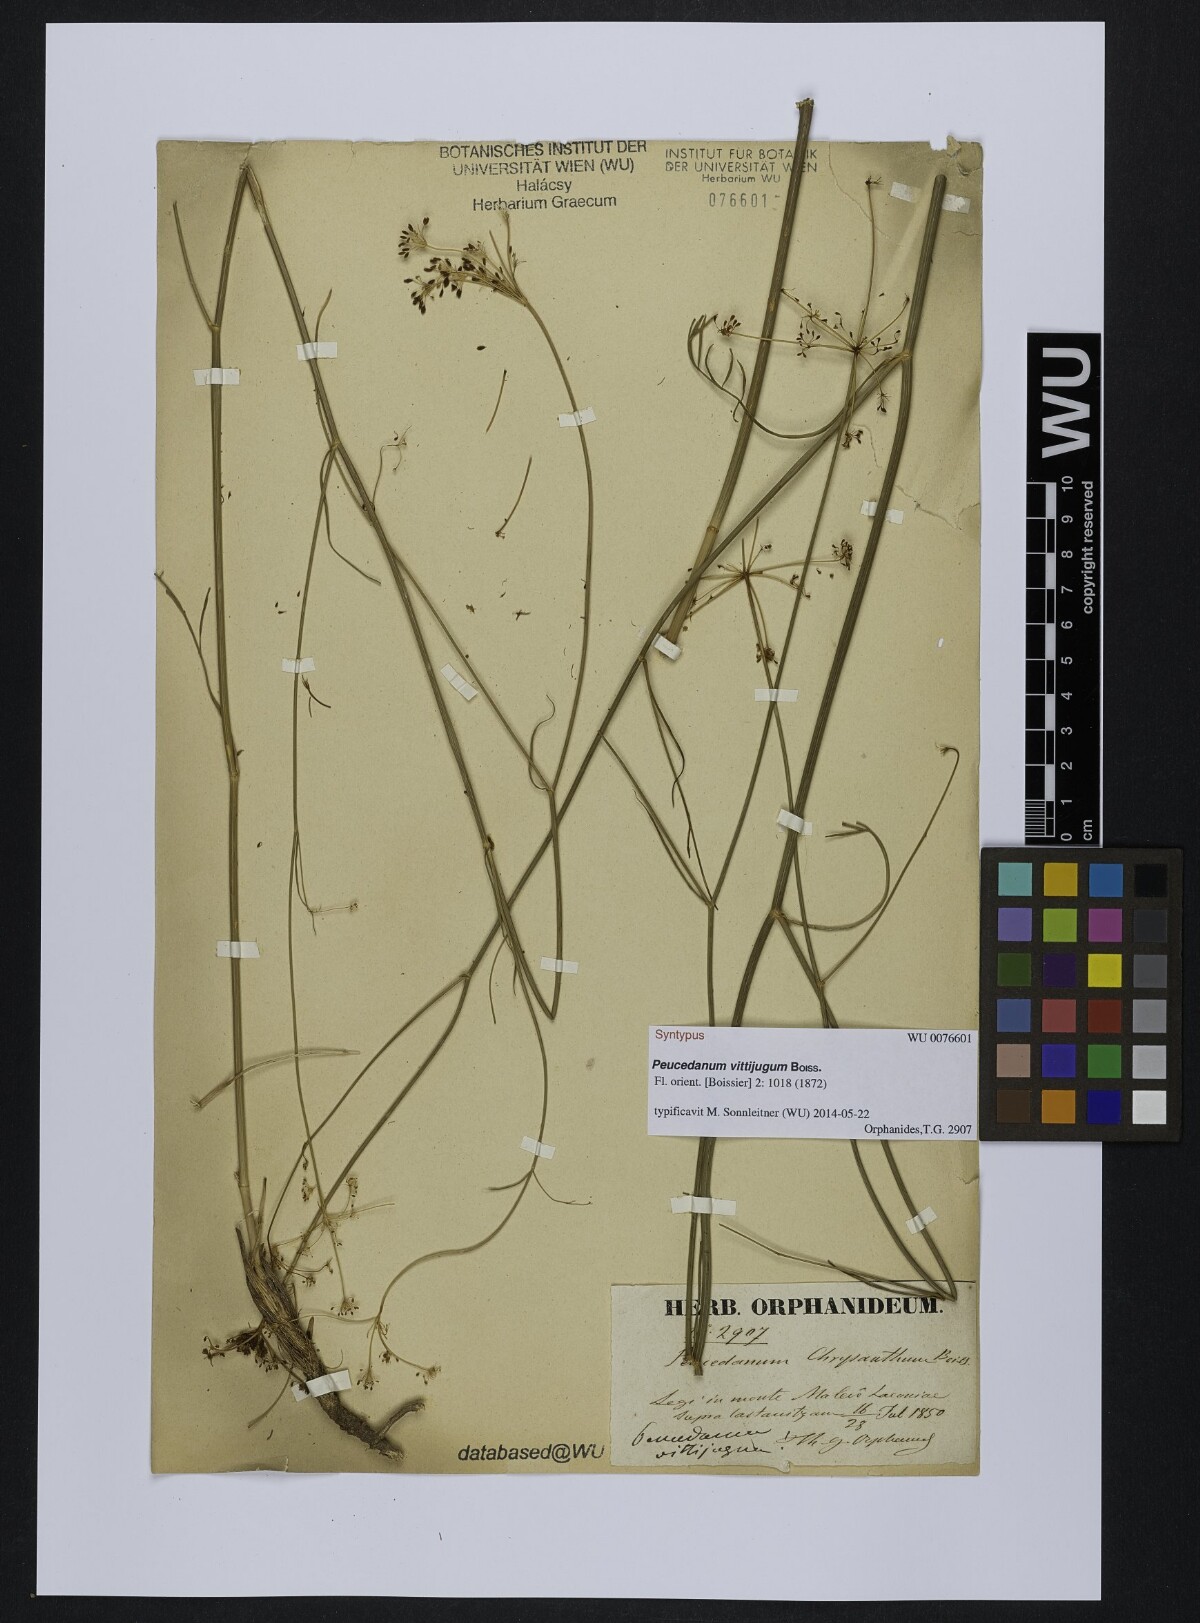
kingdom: Plantae
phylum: Tracheophyta
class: Magnoliopsida
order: Apiales
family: Apiaceae
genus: Dichoropetalum
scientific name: Dichoropetalum vittijugum
